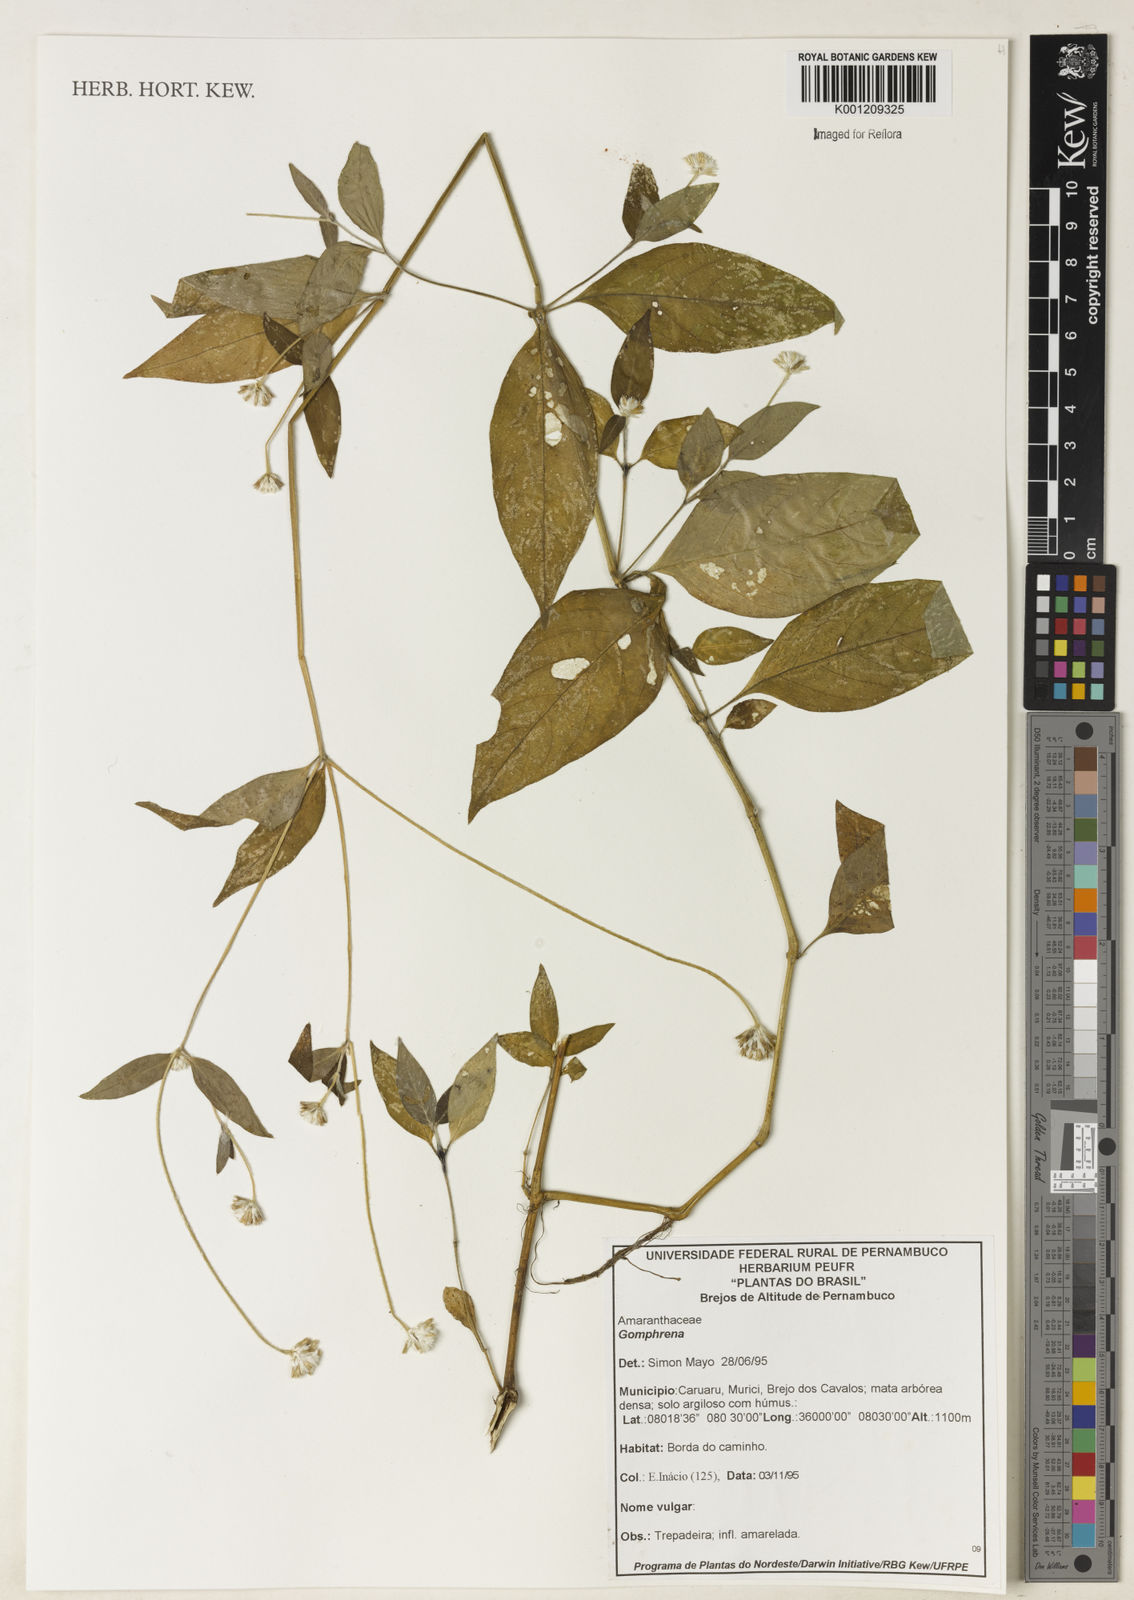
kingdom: Plantae
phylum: Tracheophyta
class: Magnoliopsida
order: Caryophyllales
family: Amaranthaceae
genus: Gomphrena
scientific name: Gomphrena
